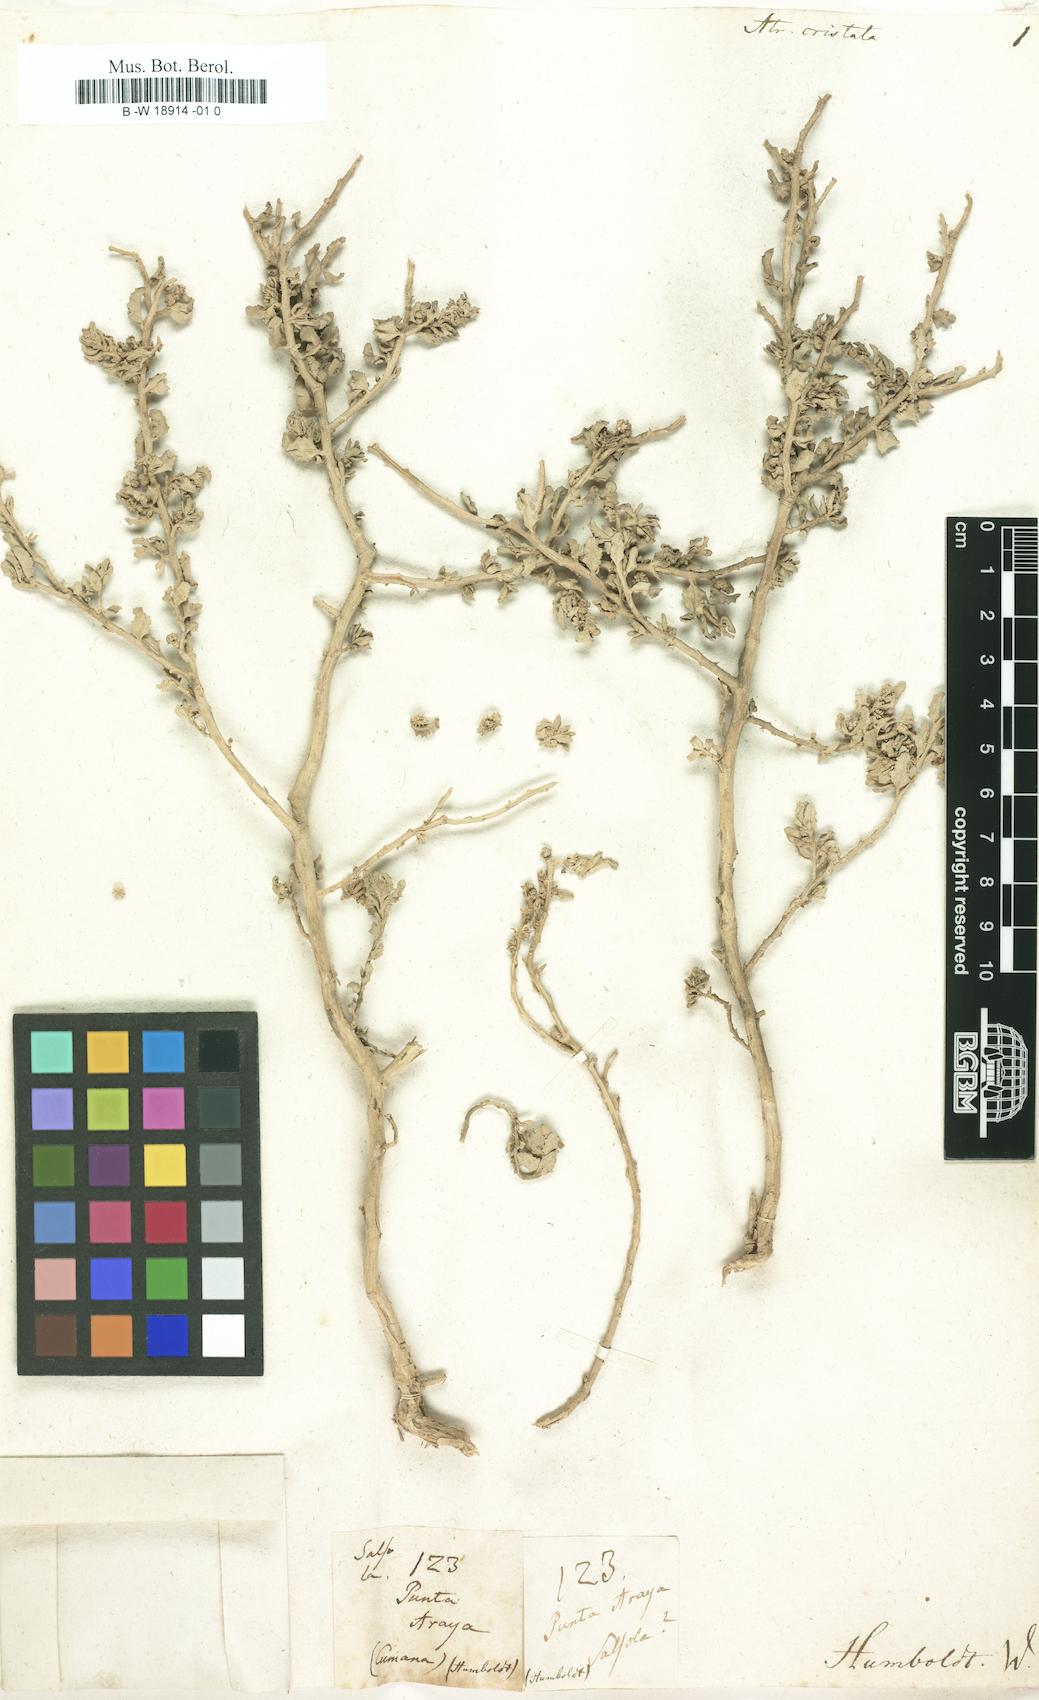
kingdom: Plantae
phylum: Tracheophyta
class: Magnoliopsida
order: Caryophyllales
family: Amaranthaceae
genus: Atriplex
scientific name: Atriplex cristata
